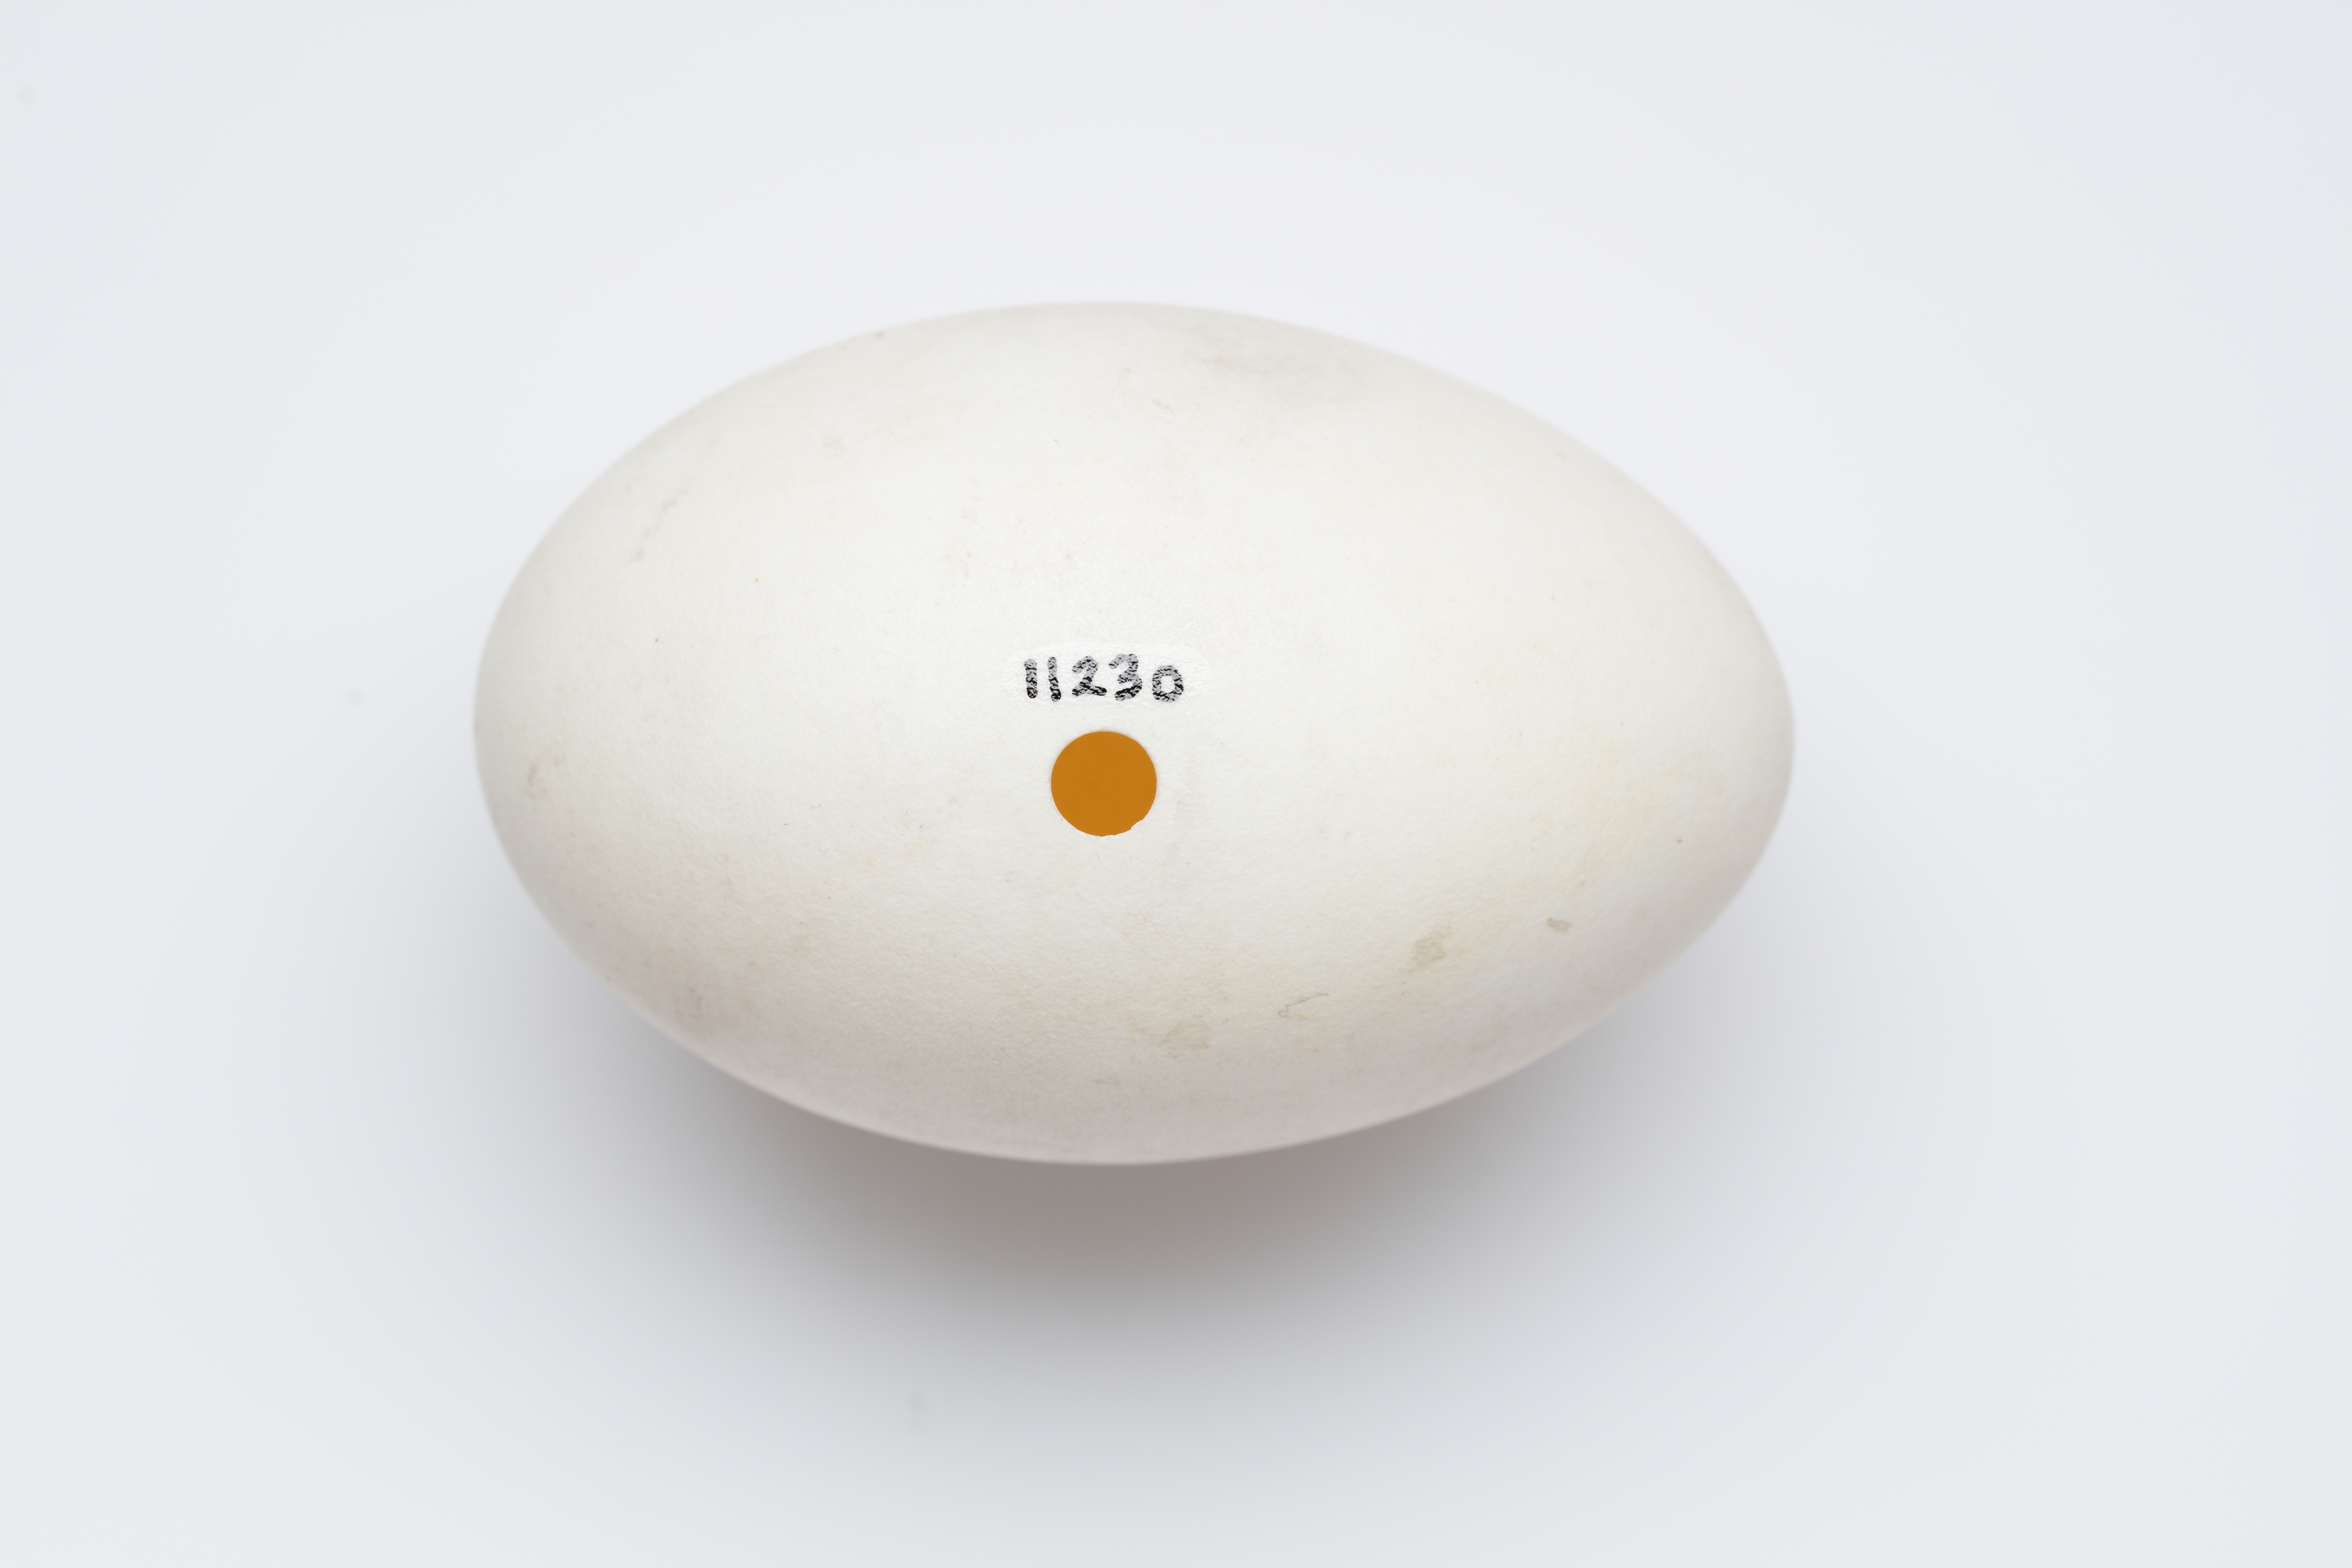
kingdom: Animalia
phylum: Chordata
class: Aves
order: Anseriformes
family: Anatidae
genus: Anser
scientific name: Anser anser
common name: Greylag goose
